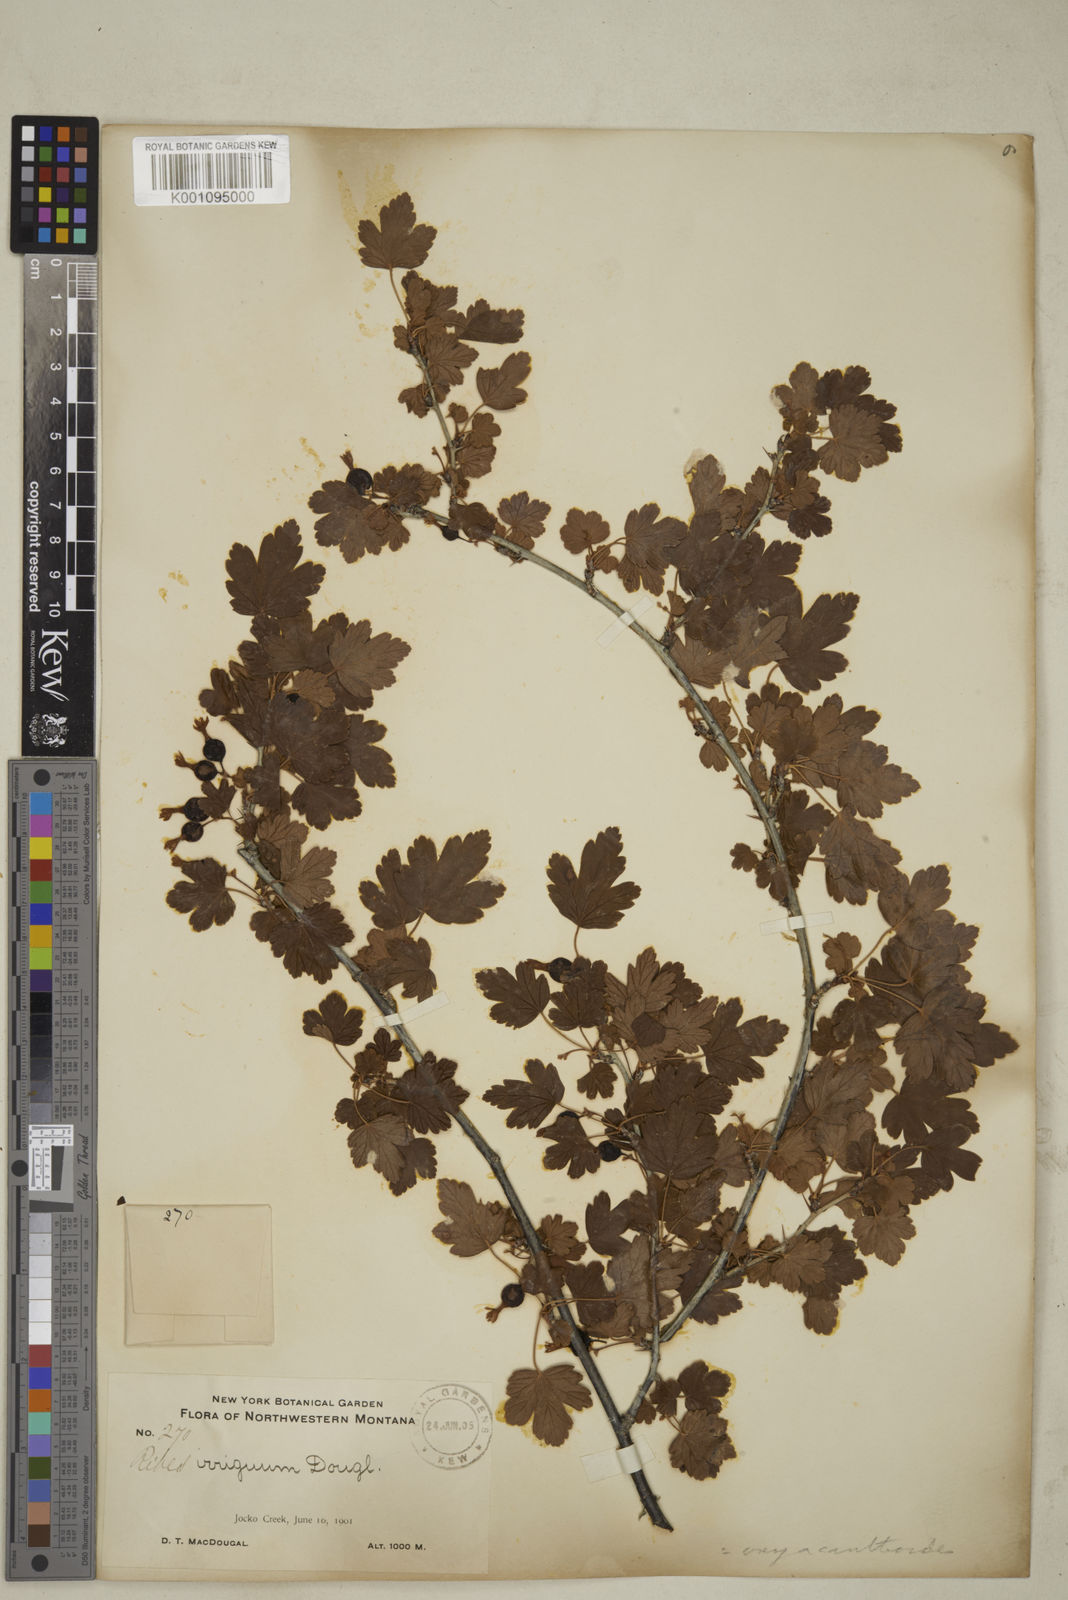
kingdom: Plantae
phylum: Tracheophyta
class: Magnoliopsida
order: Saxifragales
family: Grossulariaceae
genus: Ribes
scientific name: Ribes oxyacanthoides
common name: Northern gooseberry
